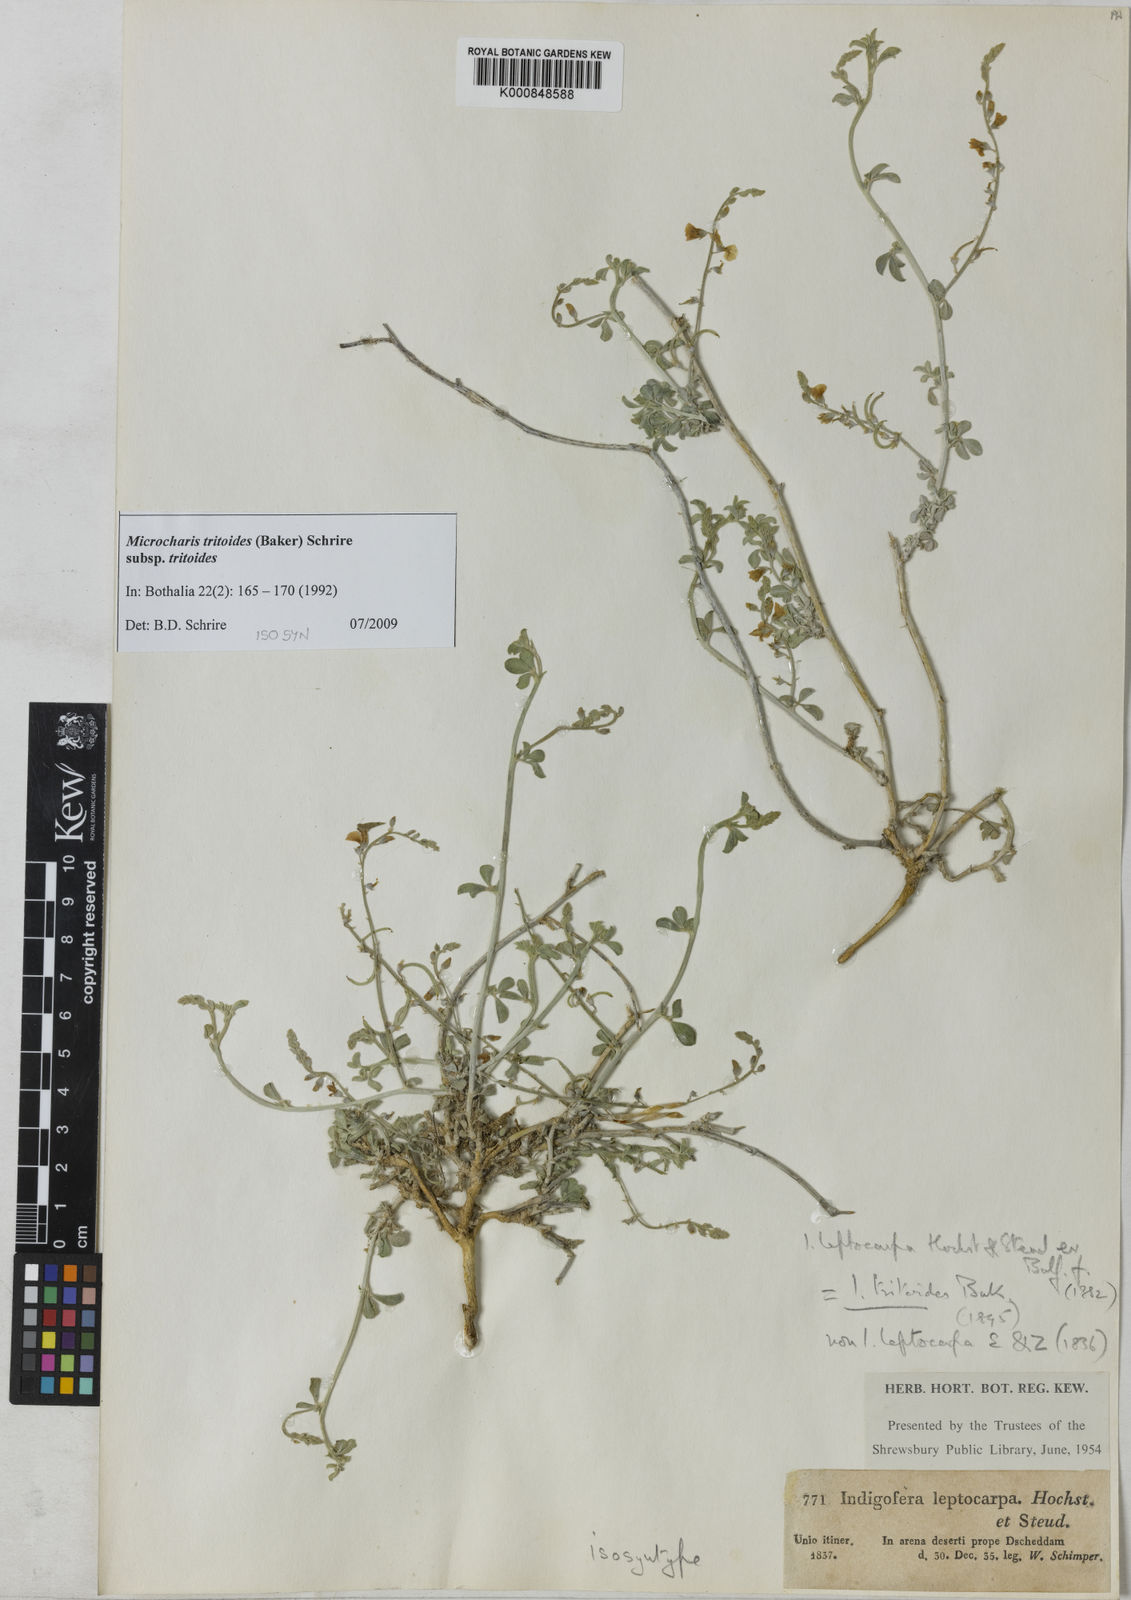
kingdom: Plantae
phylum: Tracheophyta
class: Magnoliopsida
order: Fabales
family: Fabaceae
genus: Microcharis
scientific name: Microcharis tritoides
